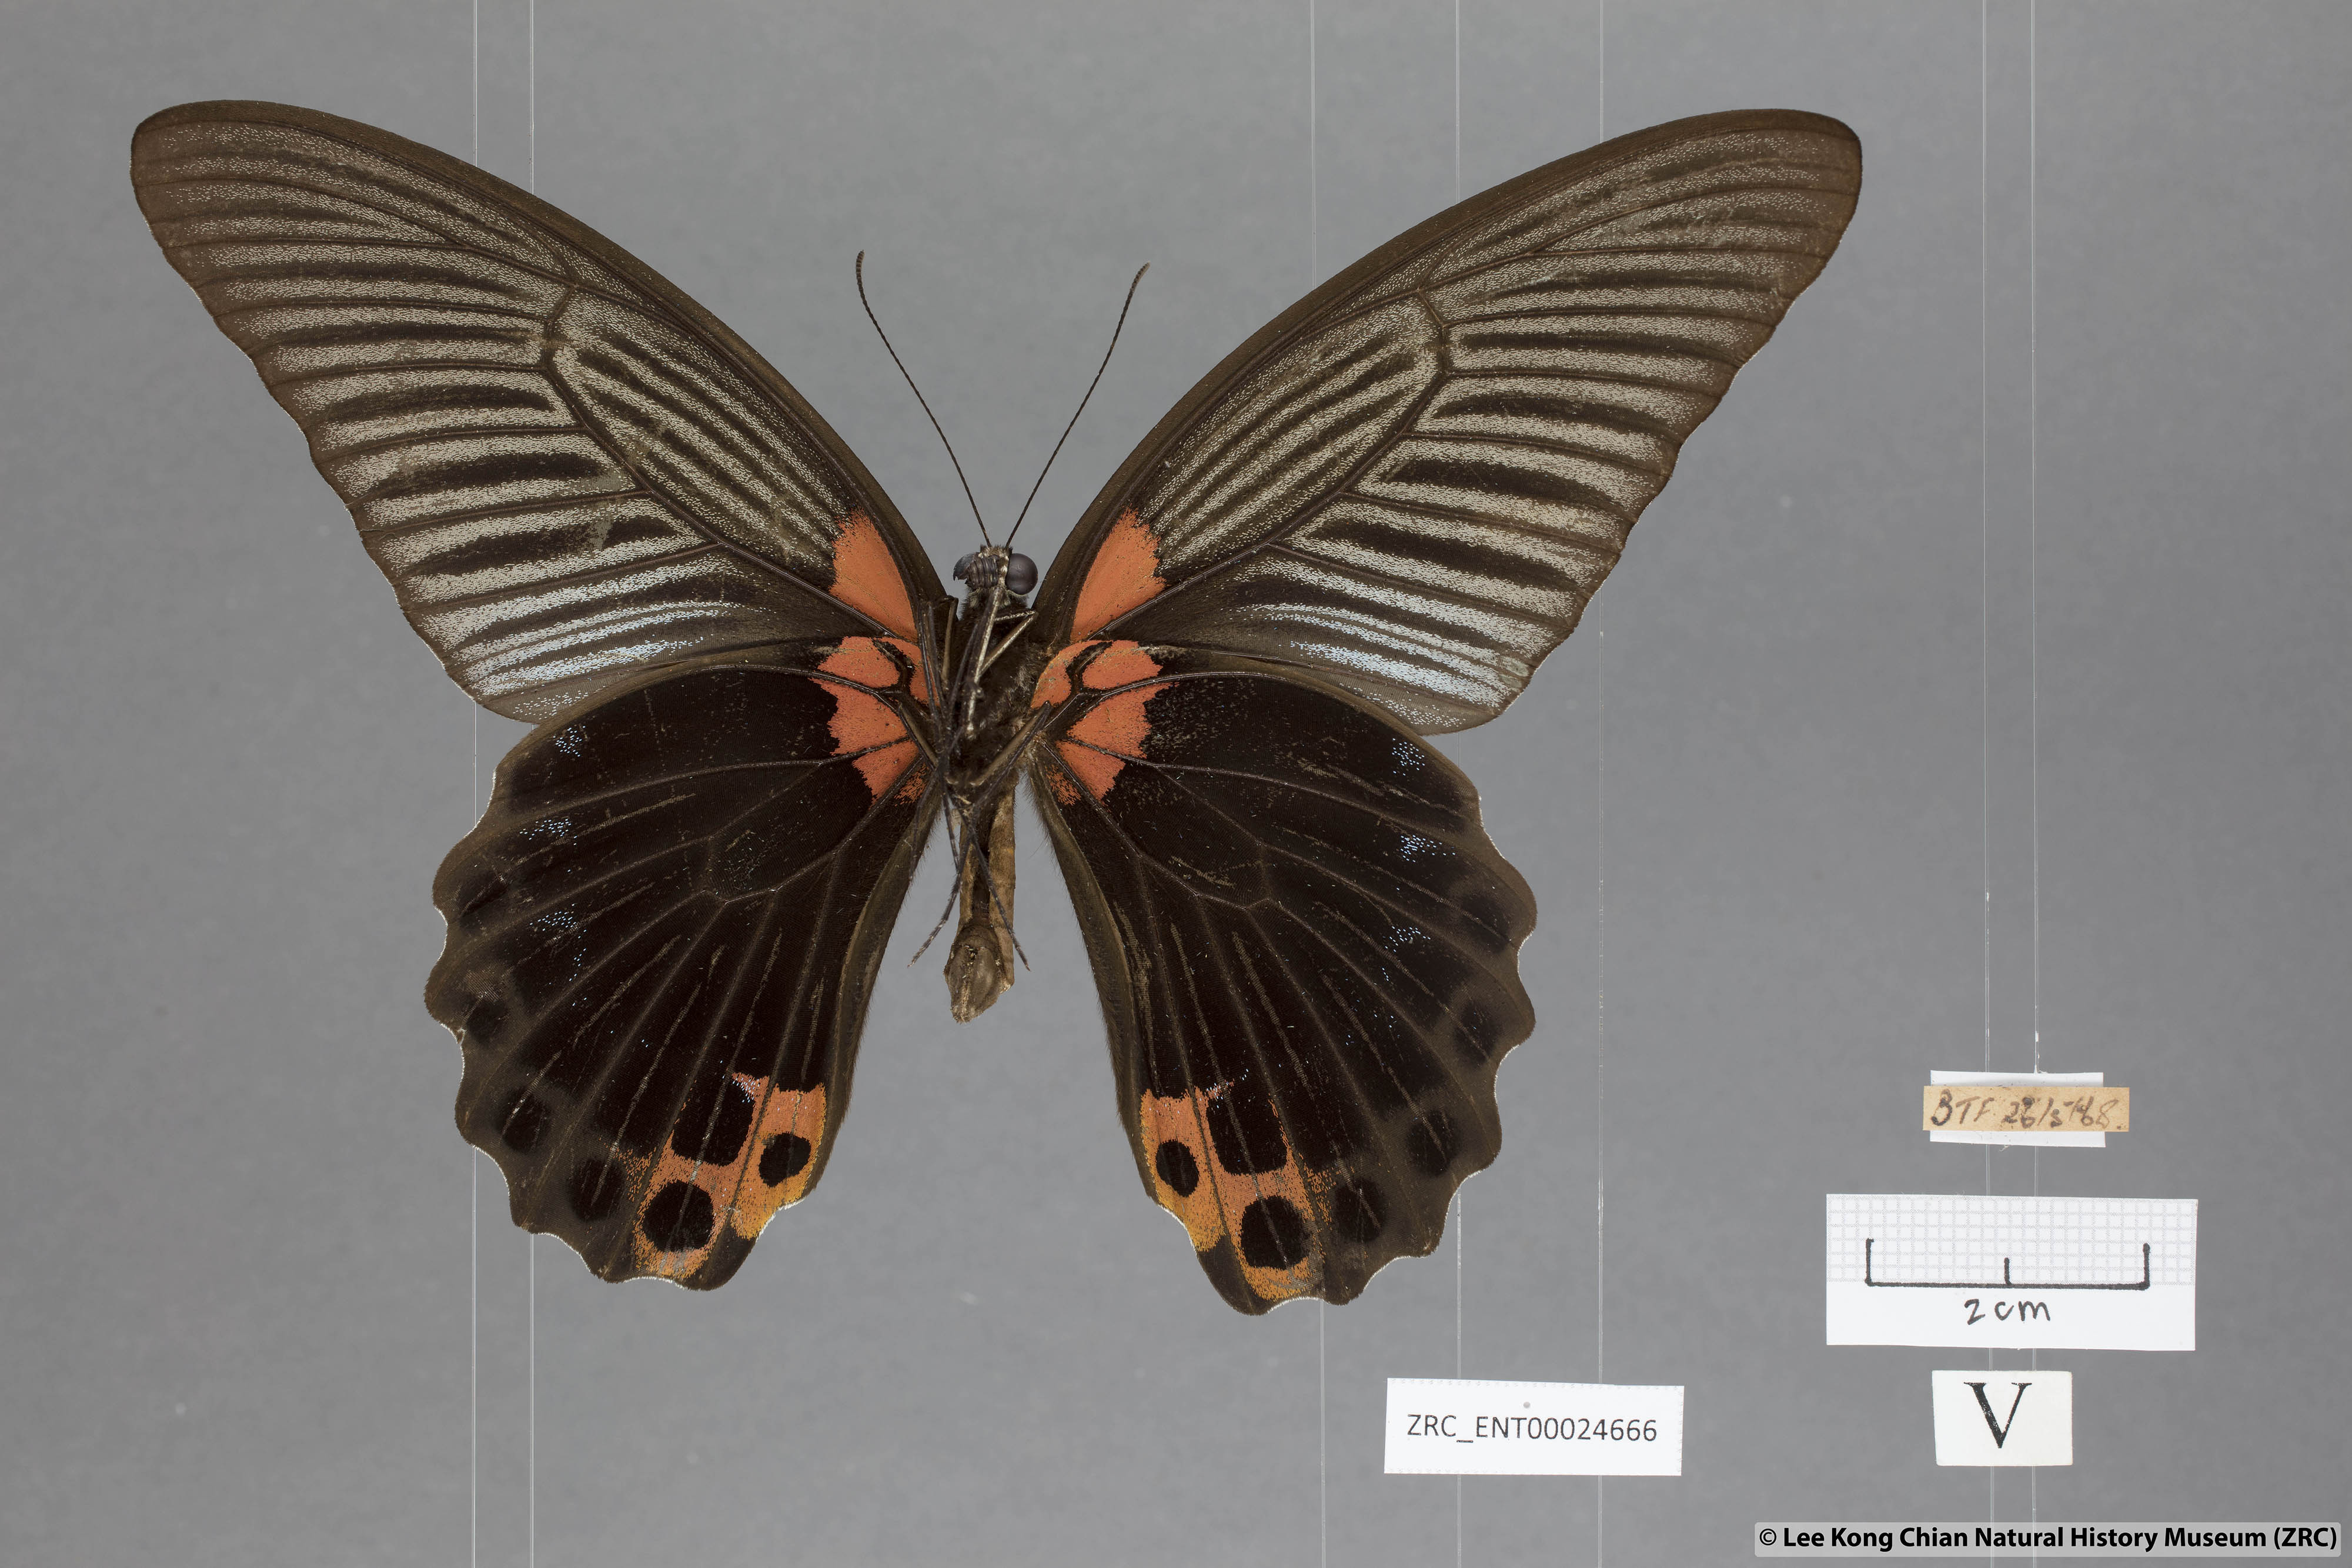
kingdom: Animalia
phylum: Arthropoda
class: Insecta
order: Lepidoptera
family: Papilionidae
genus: Papilio
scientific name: Papilio memnon
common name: Great mormon
